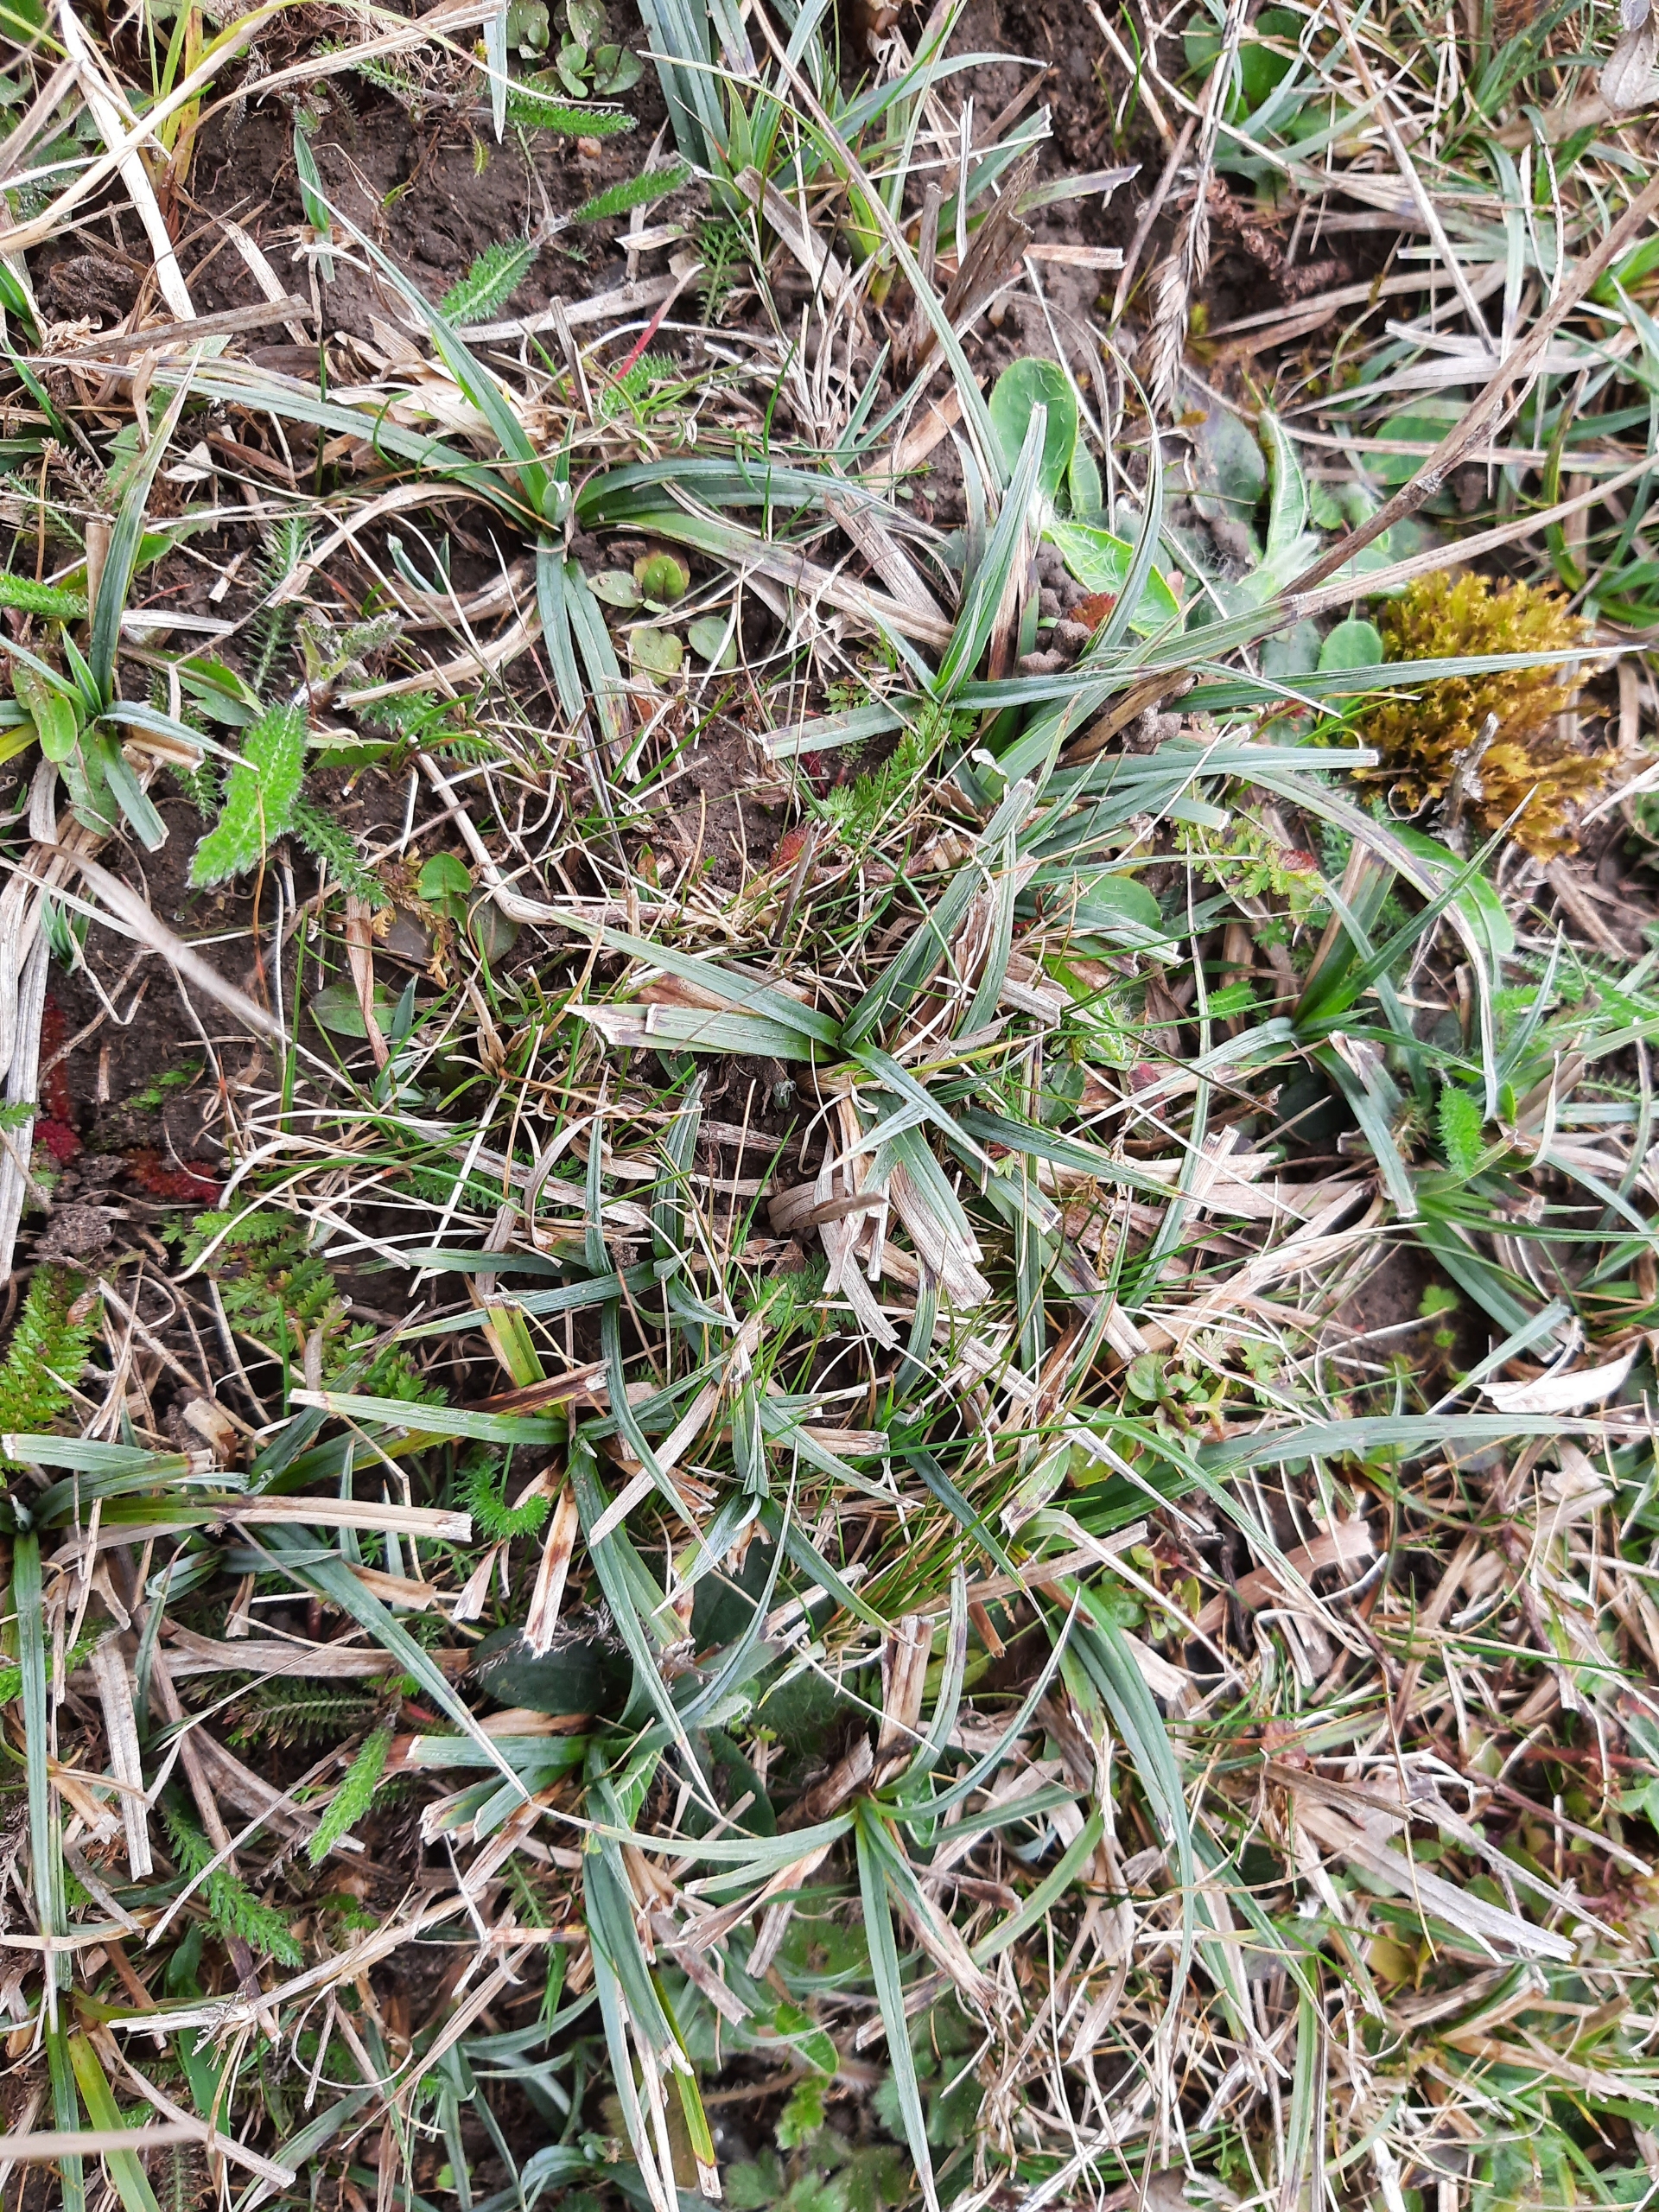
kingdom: Plantae
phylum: Tracheophyta
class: Liliopsida
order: Poales
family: Cyperaceae
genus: Carex
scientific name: Carex flacca
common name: Blågrøn star
